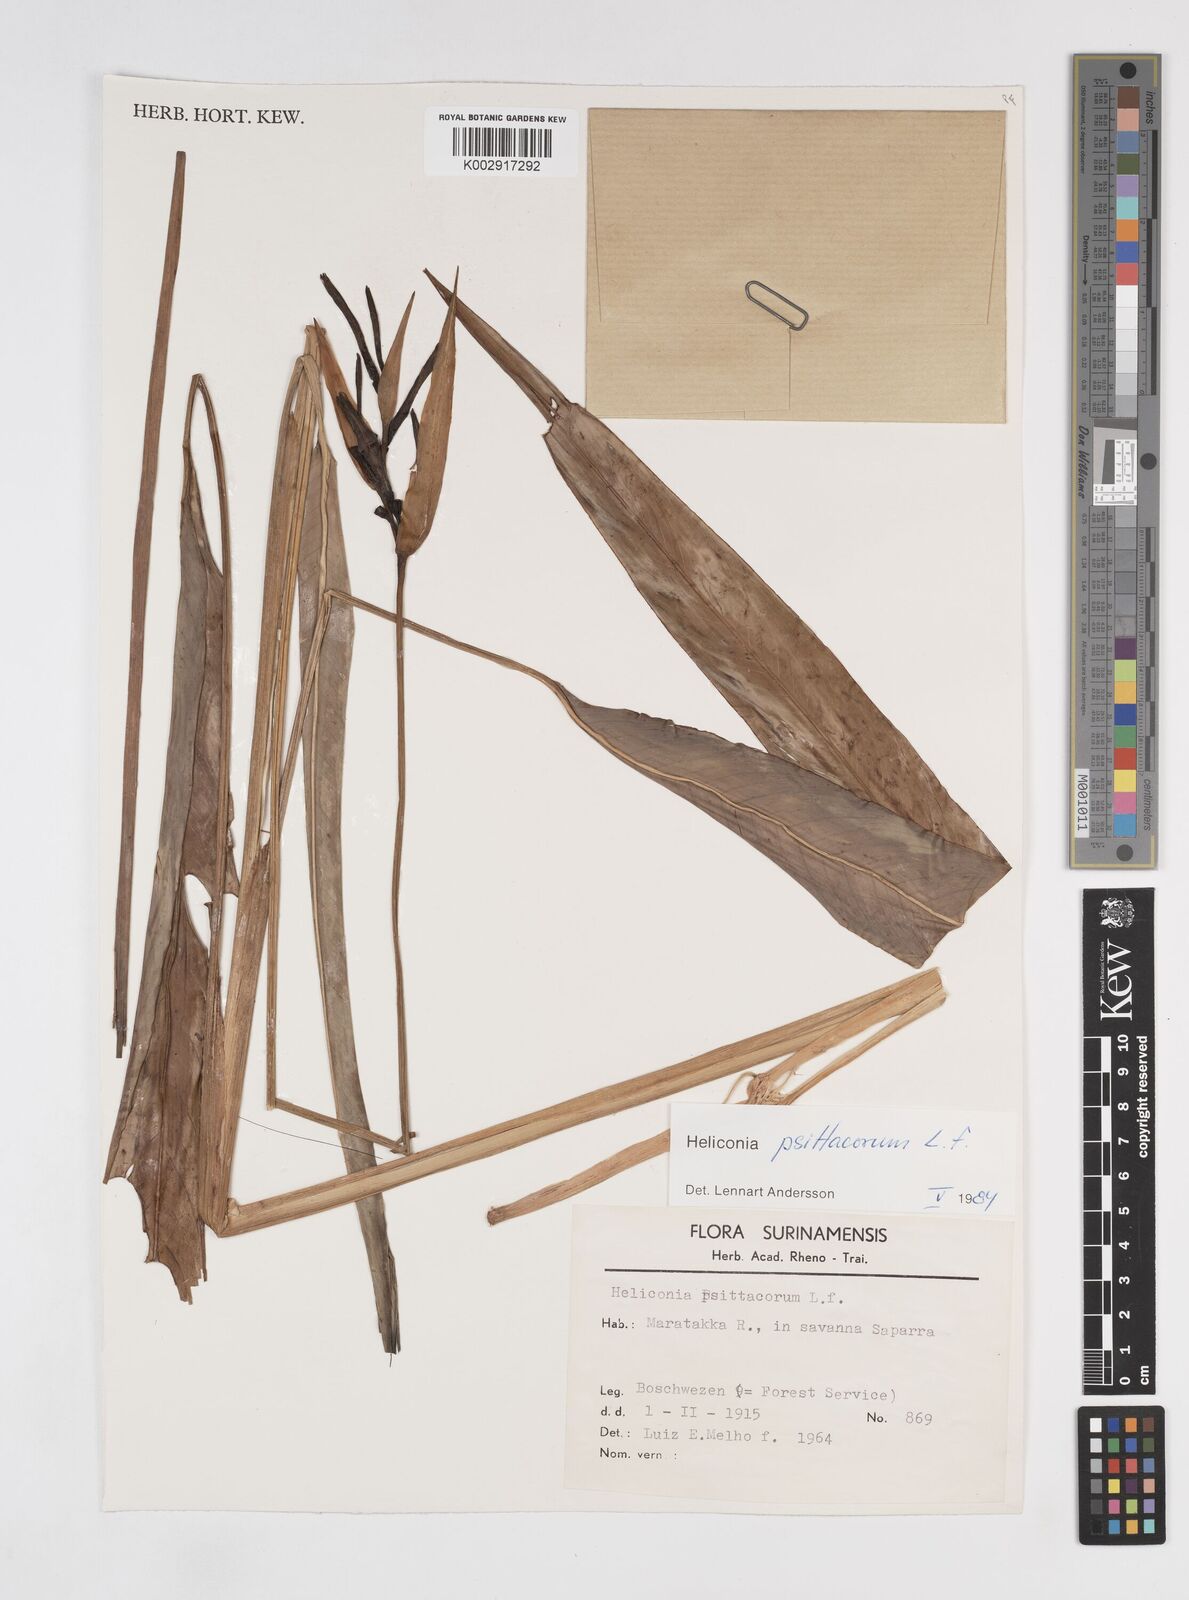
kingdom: Plantae
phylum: Tracheophyta
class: Liliopsida
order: Zingiberales
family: Heliconiaceae
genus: Heliconia
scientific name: Heliconia psittacorum
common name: Parrot's-flower
